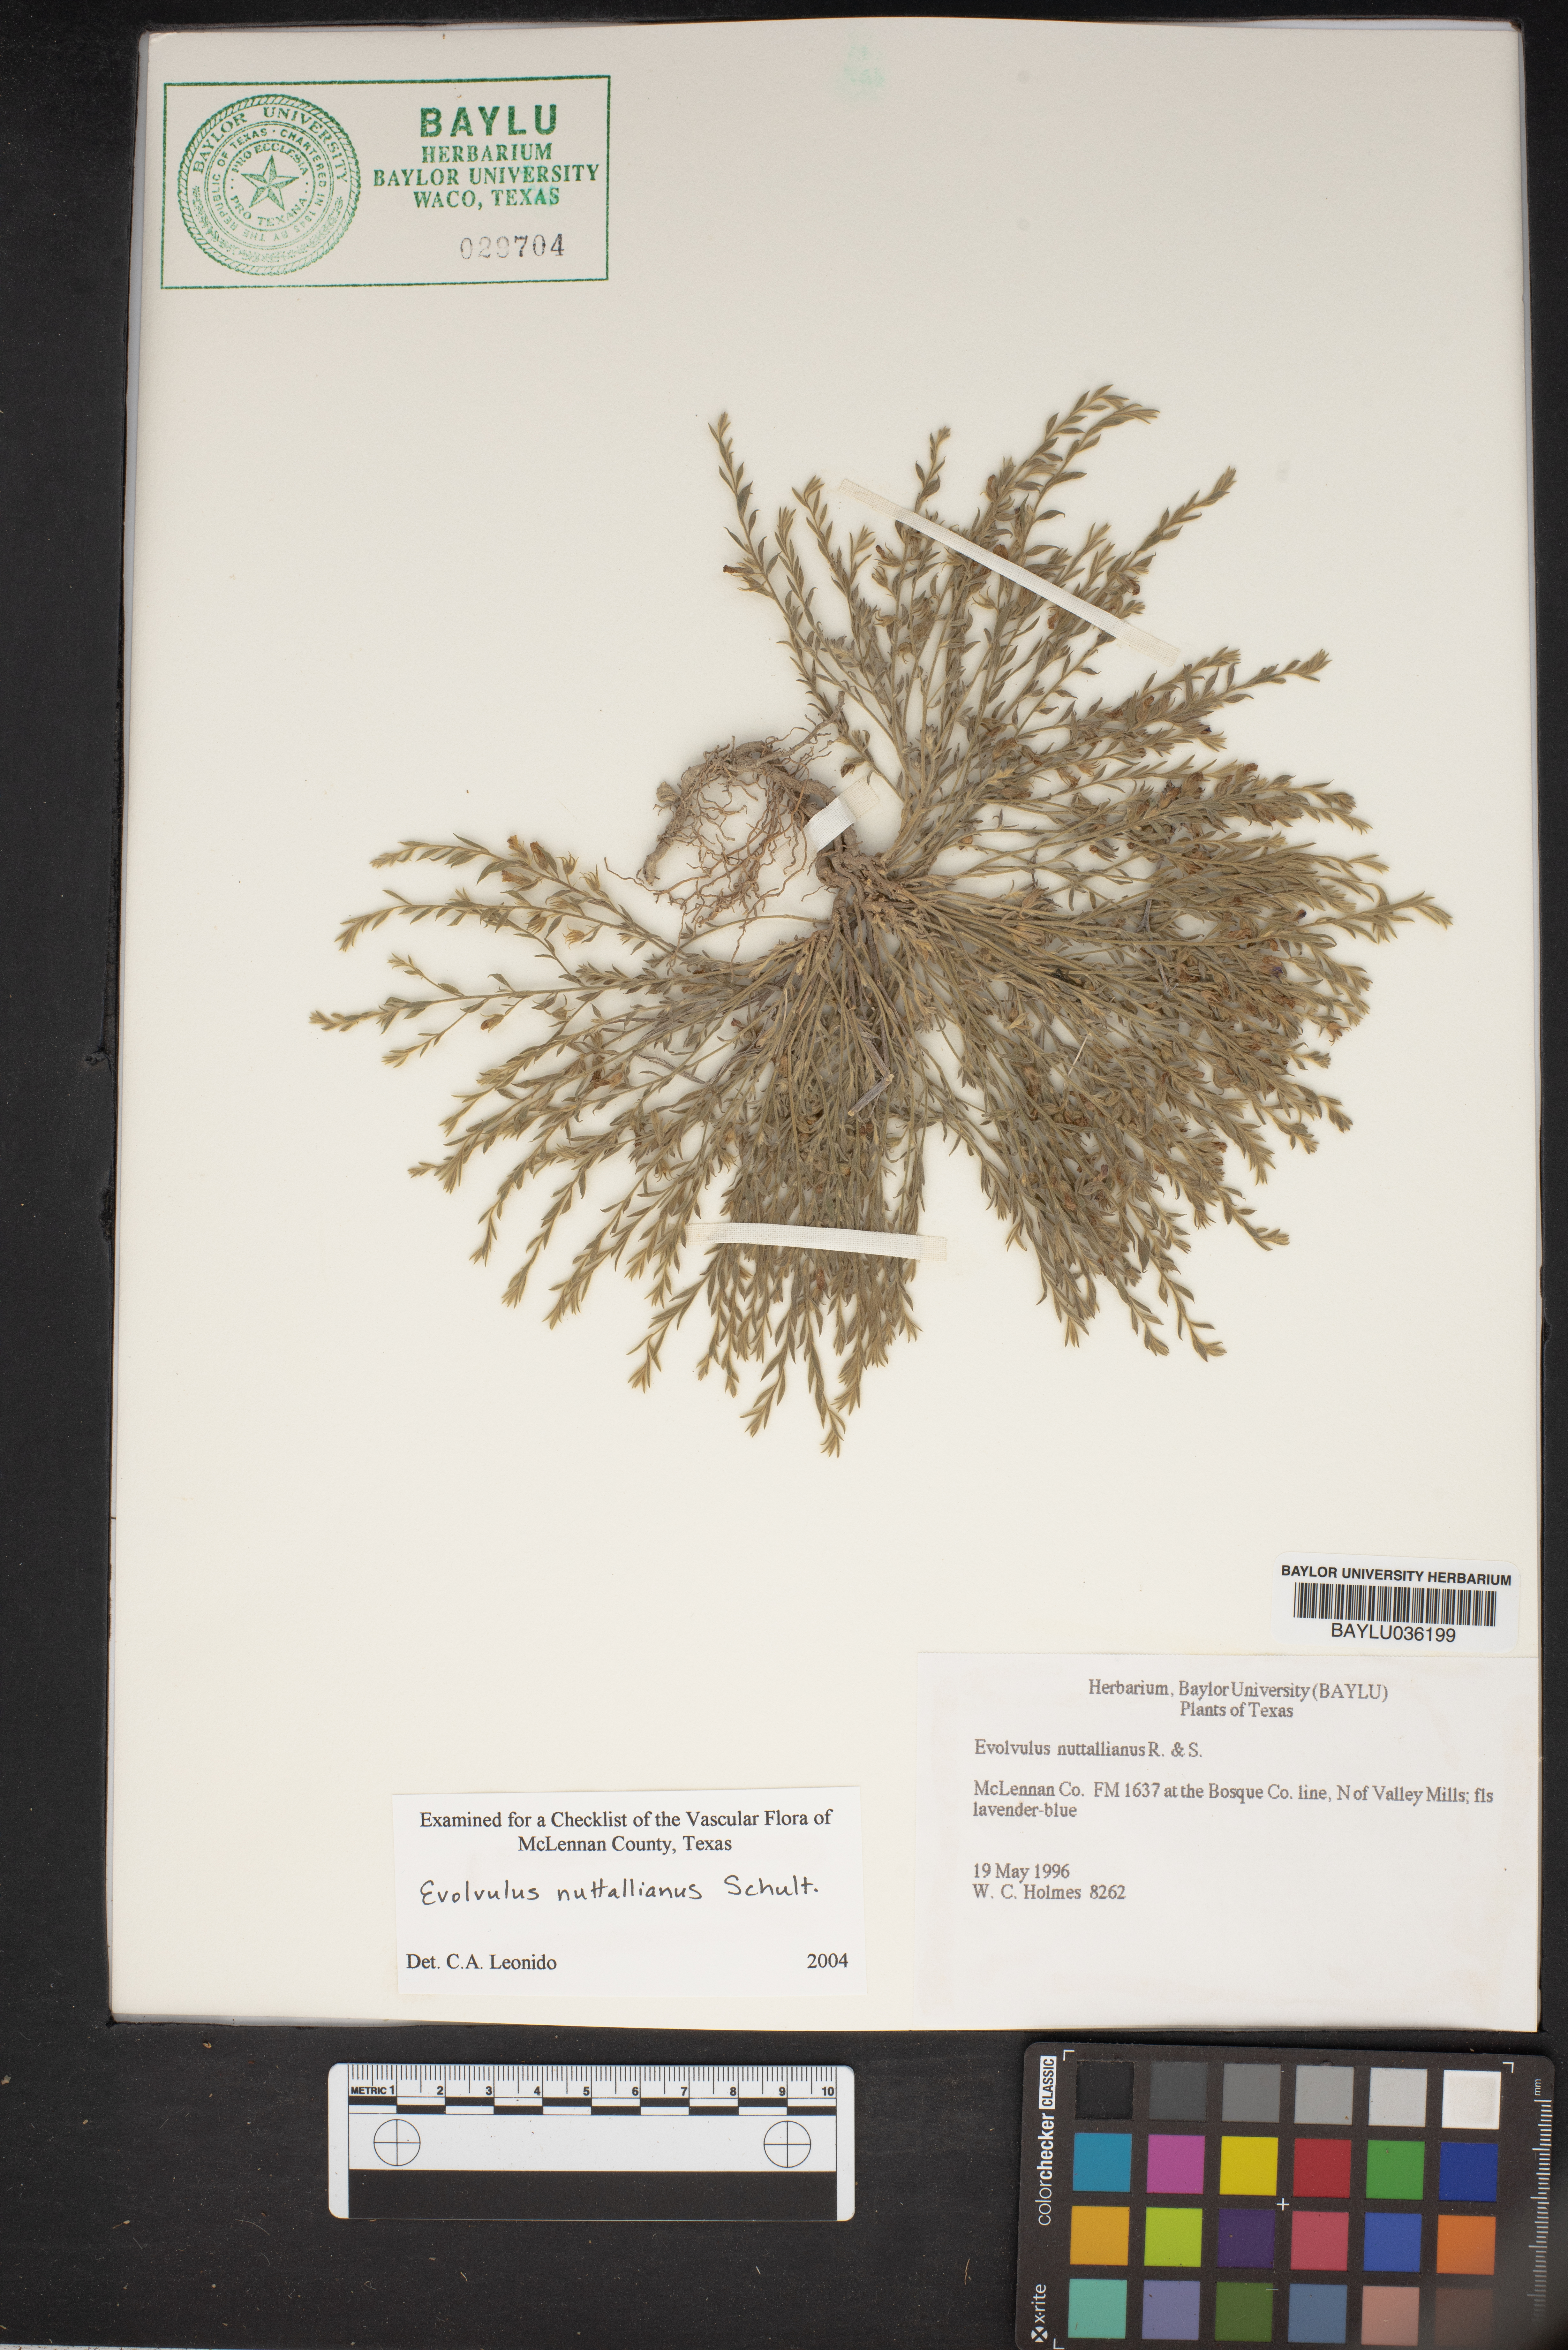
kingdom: Plantae
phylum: Tracheophyta
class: Magnoliopsida
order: Solanales
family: Convolvulaceae
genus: Evolvulus
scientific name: Evolvulus nuttallianus
